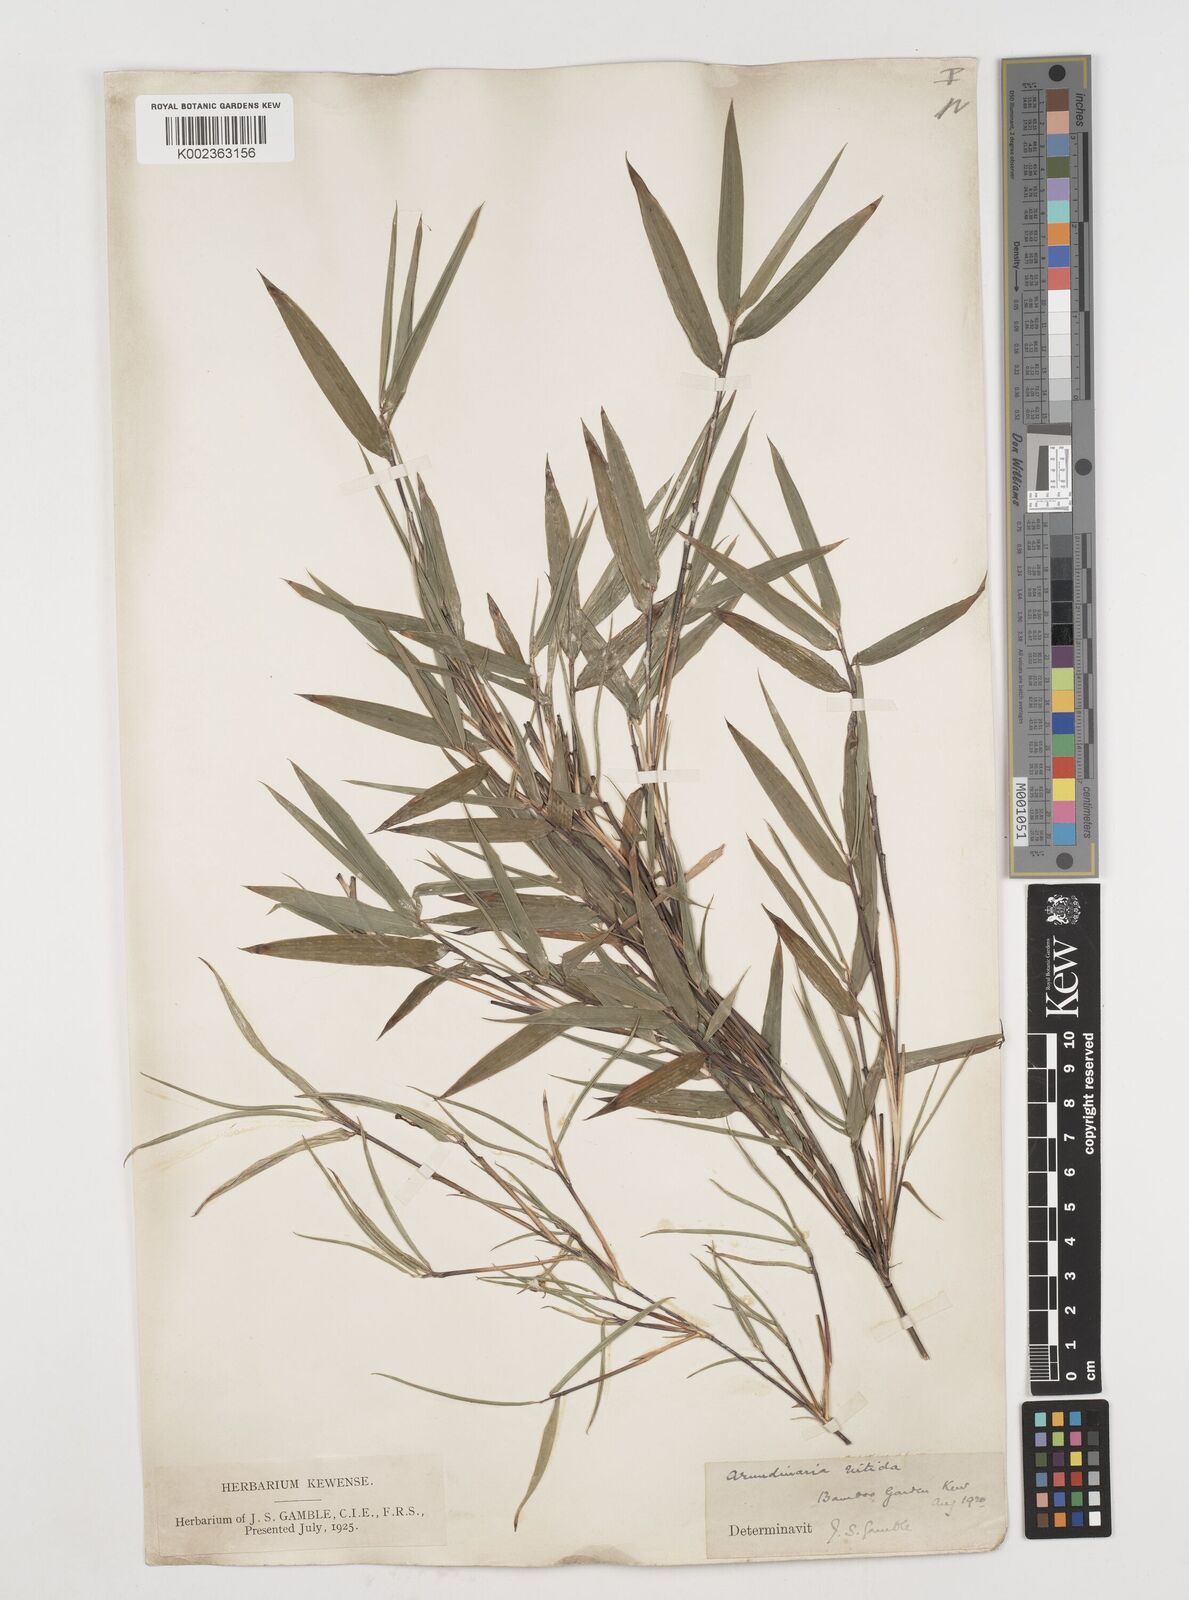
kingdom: Plantae
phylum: Tracheophyta
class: Liliopsida
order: Poales
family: Poaceae
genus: Fargesia
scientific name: Fargesia nitida ex
